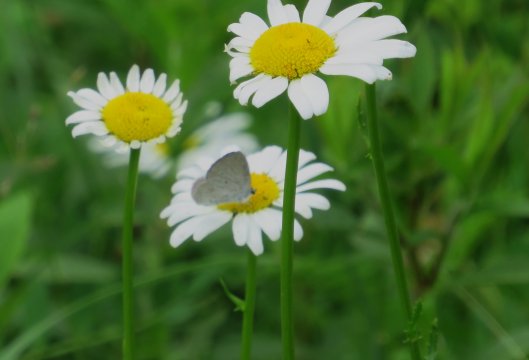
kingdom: Animalia
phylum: Arthropoda
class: Insecta
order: Lepidoptera
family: Lycaenidae
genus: Cyaniris
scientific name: Cyaniris neglecta
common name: Summer Azure
